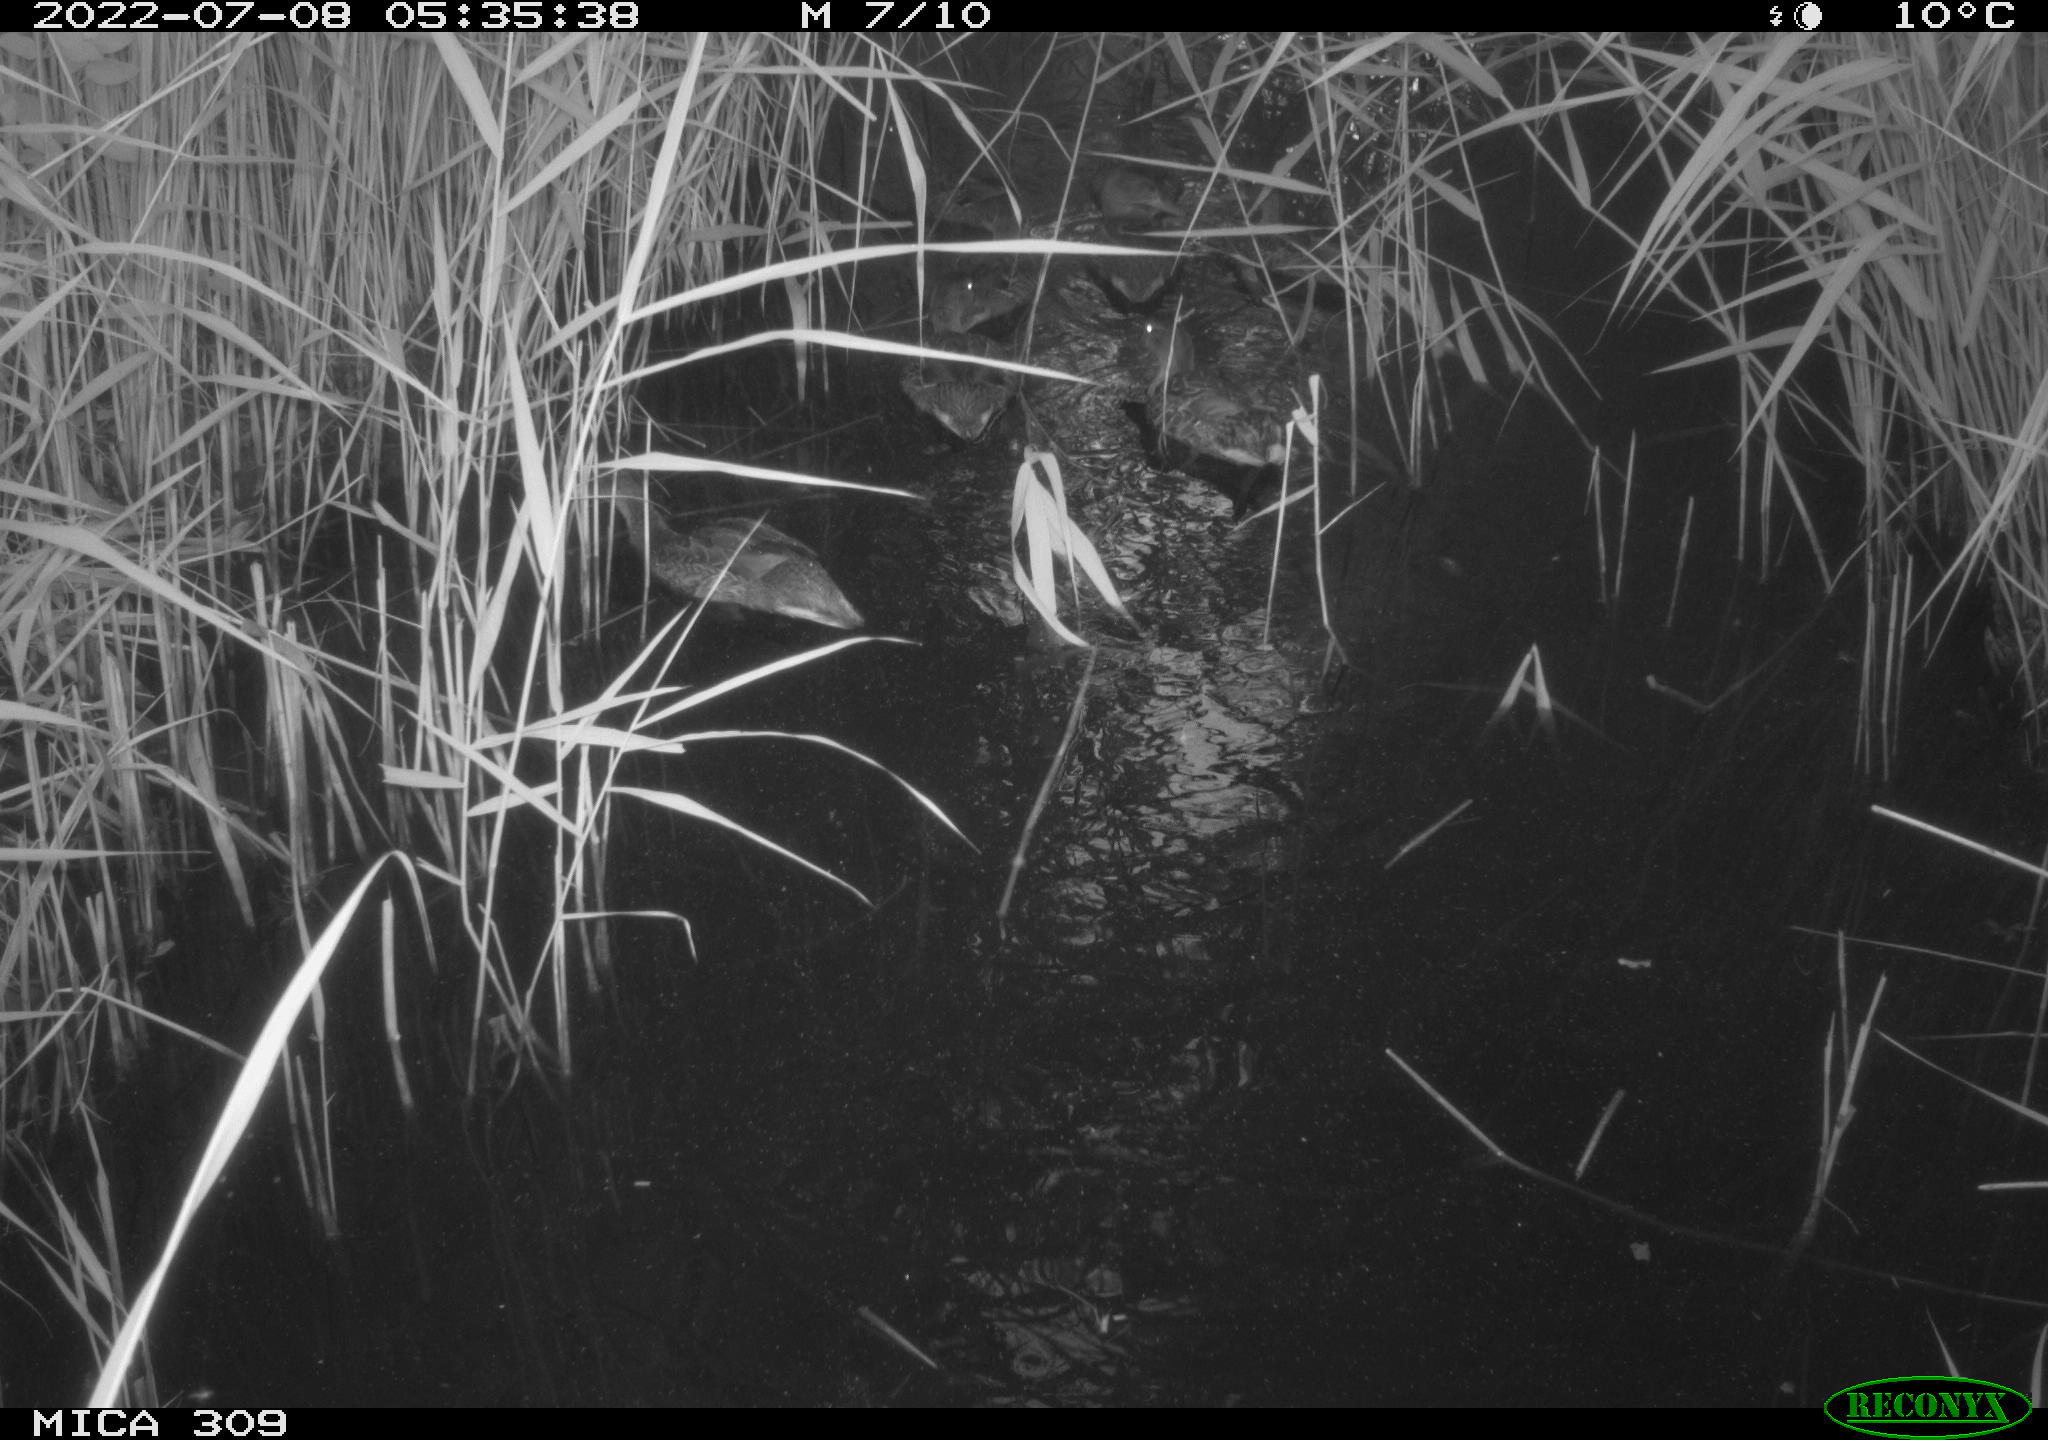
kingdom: Animalia
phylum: Chordata
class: Aves
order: Anseriformes
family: Anatidae
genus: Anas
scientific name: Anas platyrhynchos
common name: Mallard
